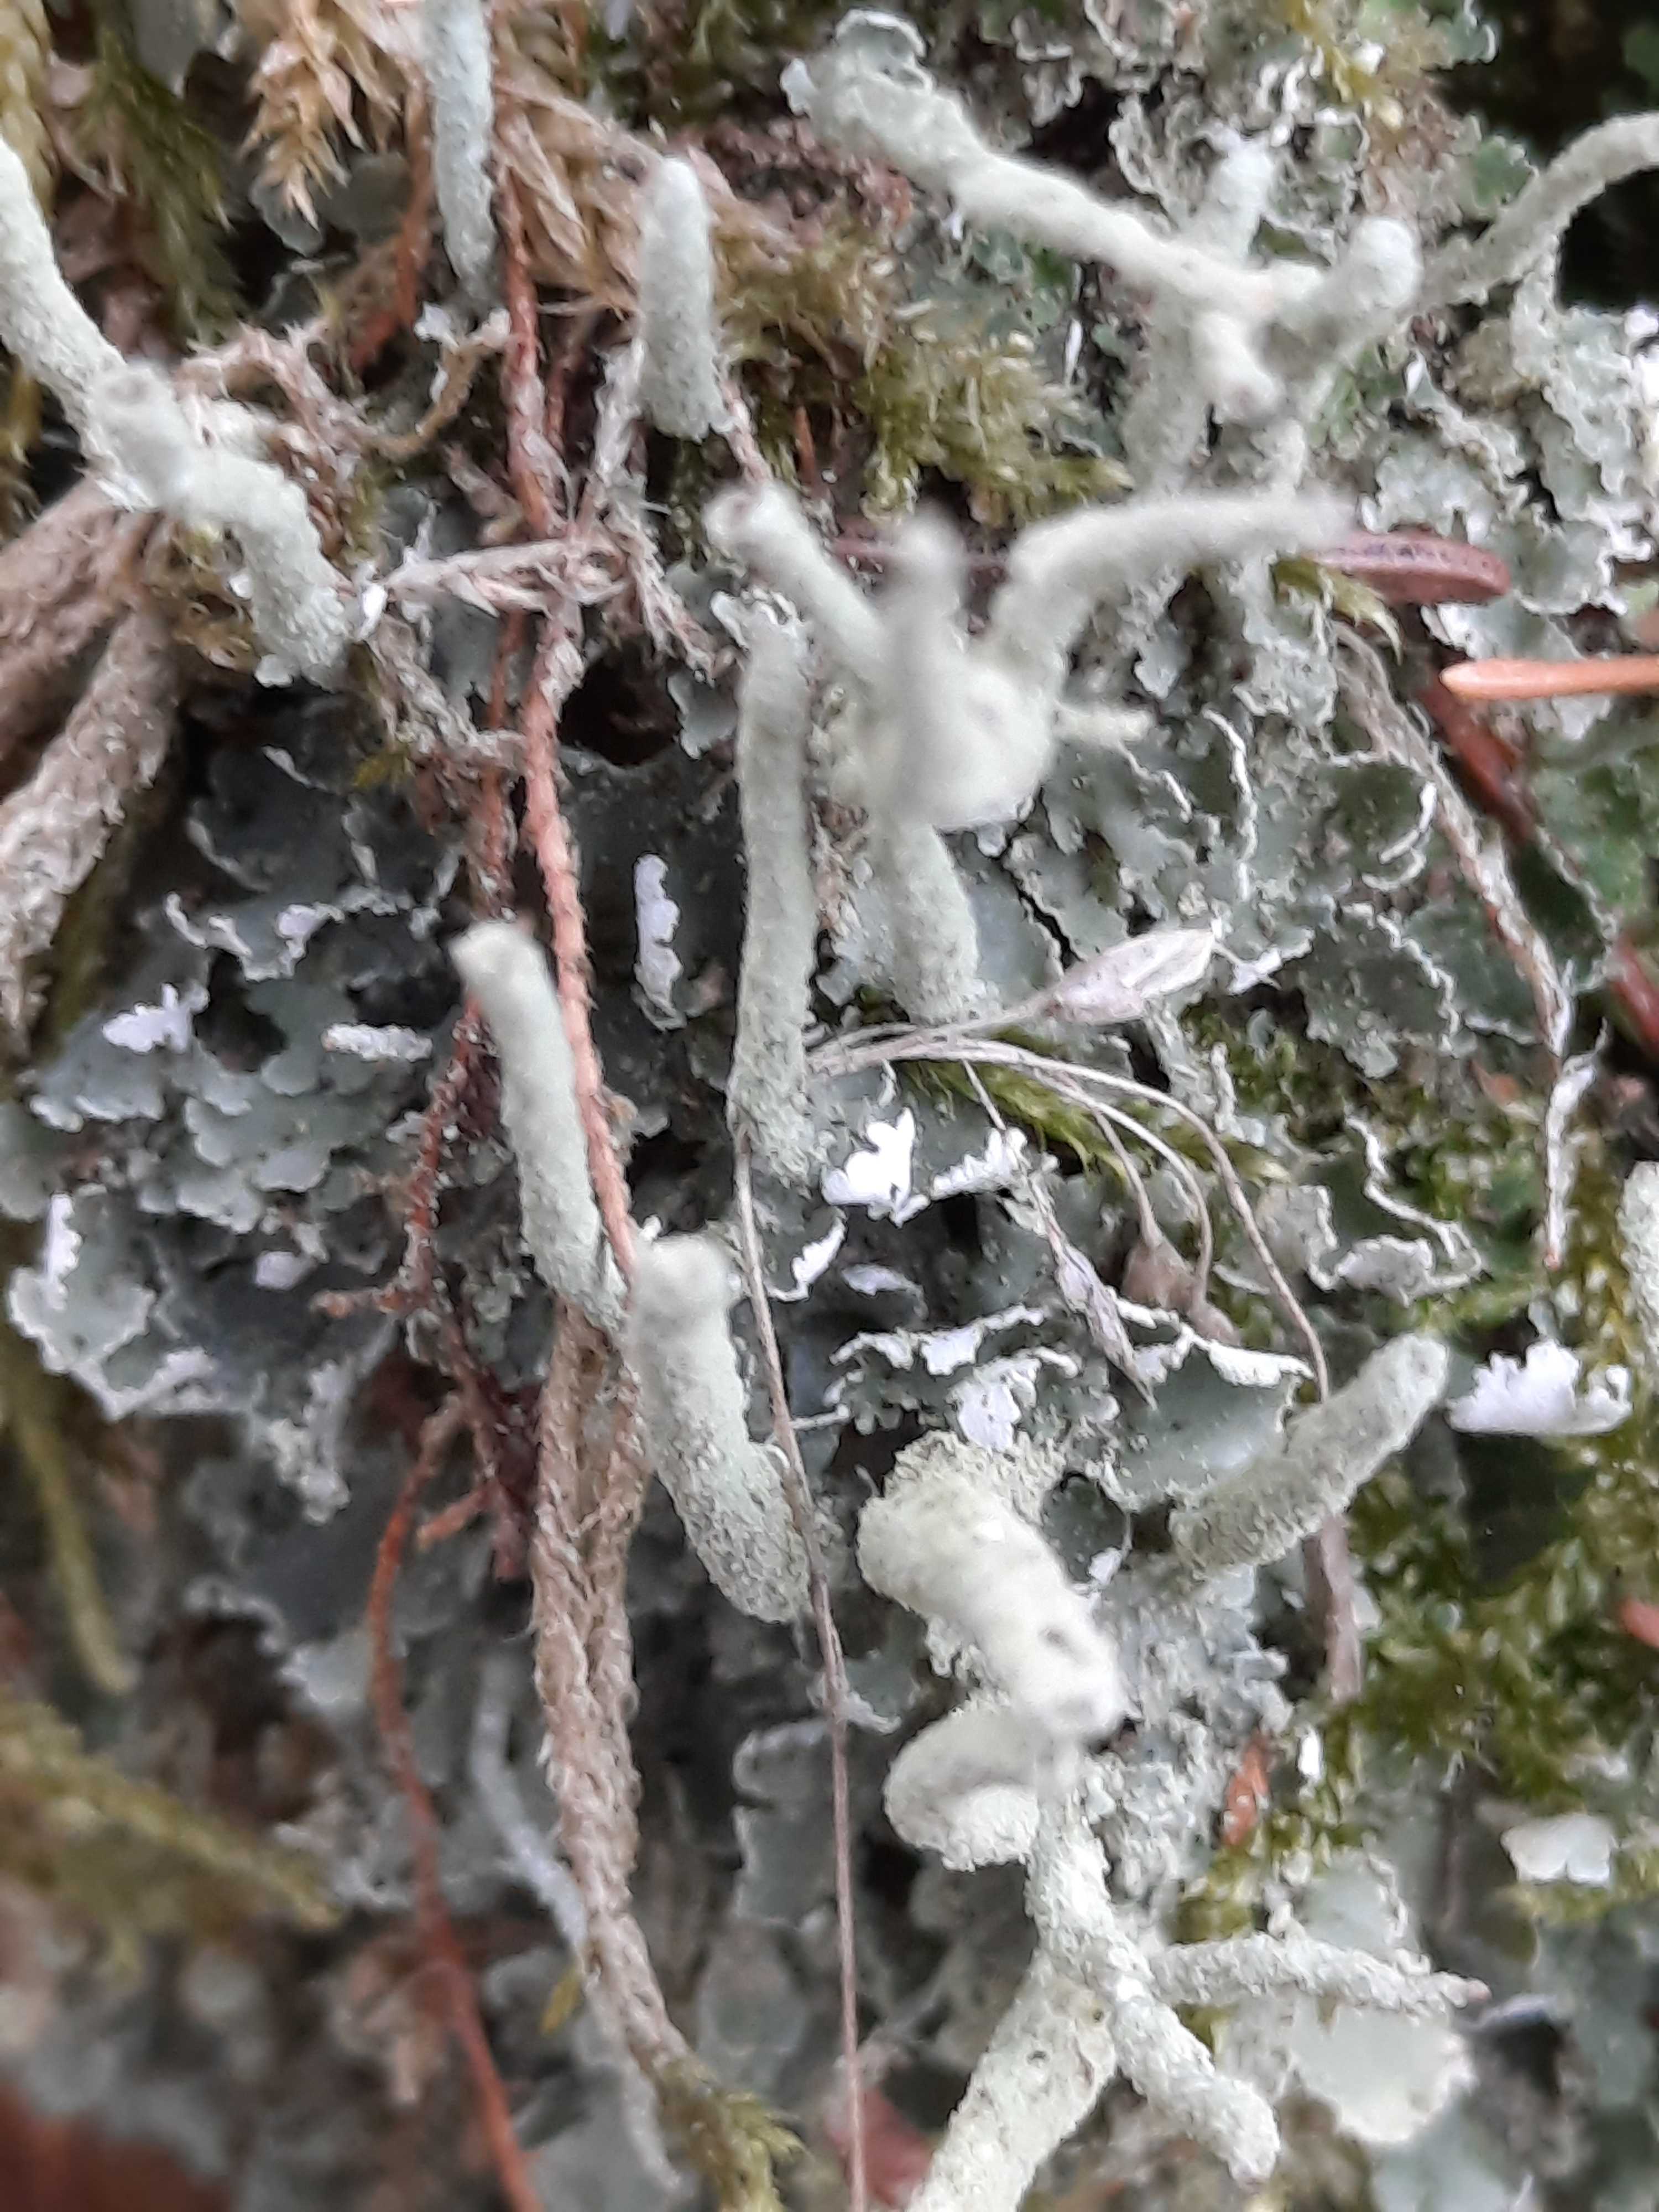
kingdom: Fungi
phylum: Ascomycota
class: Lecanoromycetes
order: Lecanorales
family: Cladoniaceae
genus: Cladonia
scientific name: Cladonia
